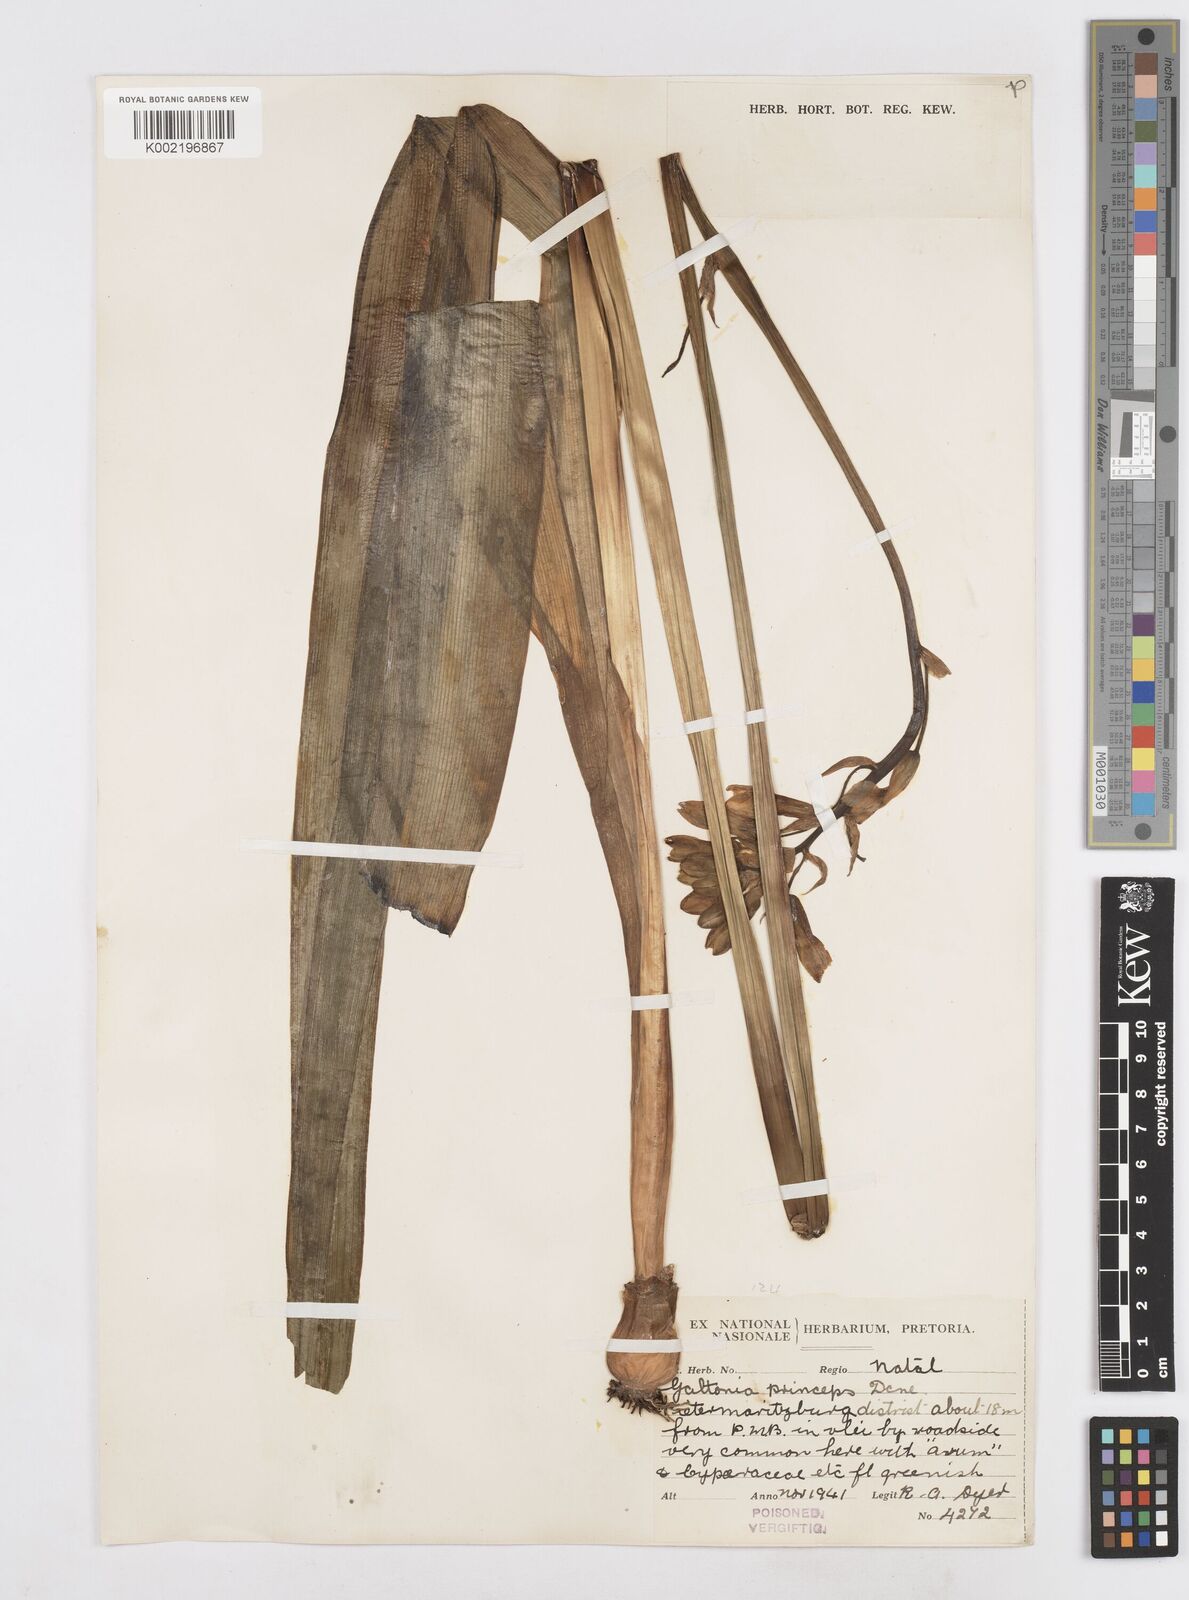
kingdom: Plantae
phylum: Tracheophyta
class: Liliopsida
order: Asparagales
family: Asparagaceae
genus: Ornithogalum
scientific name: Ornithogalum princeps
